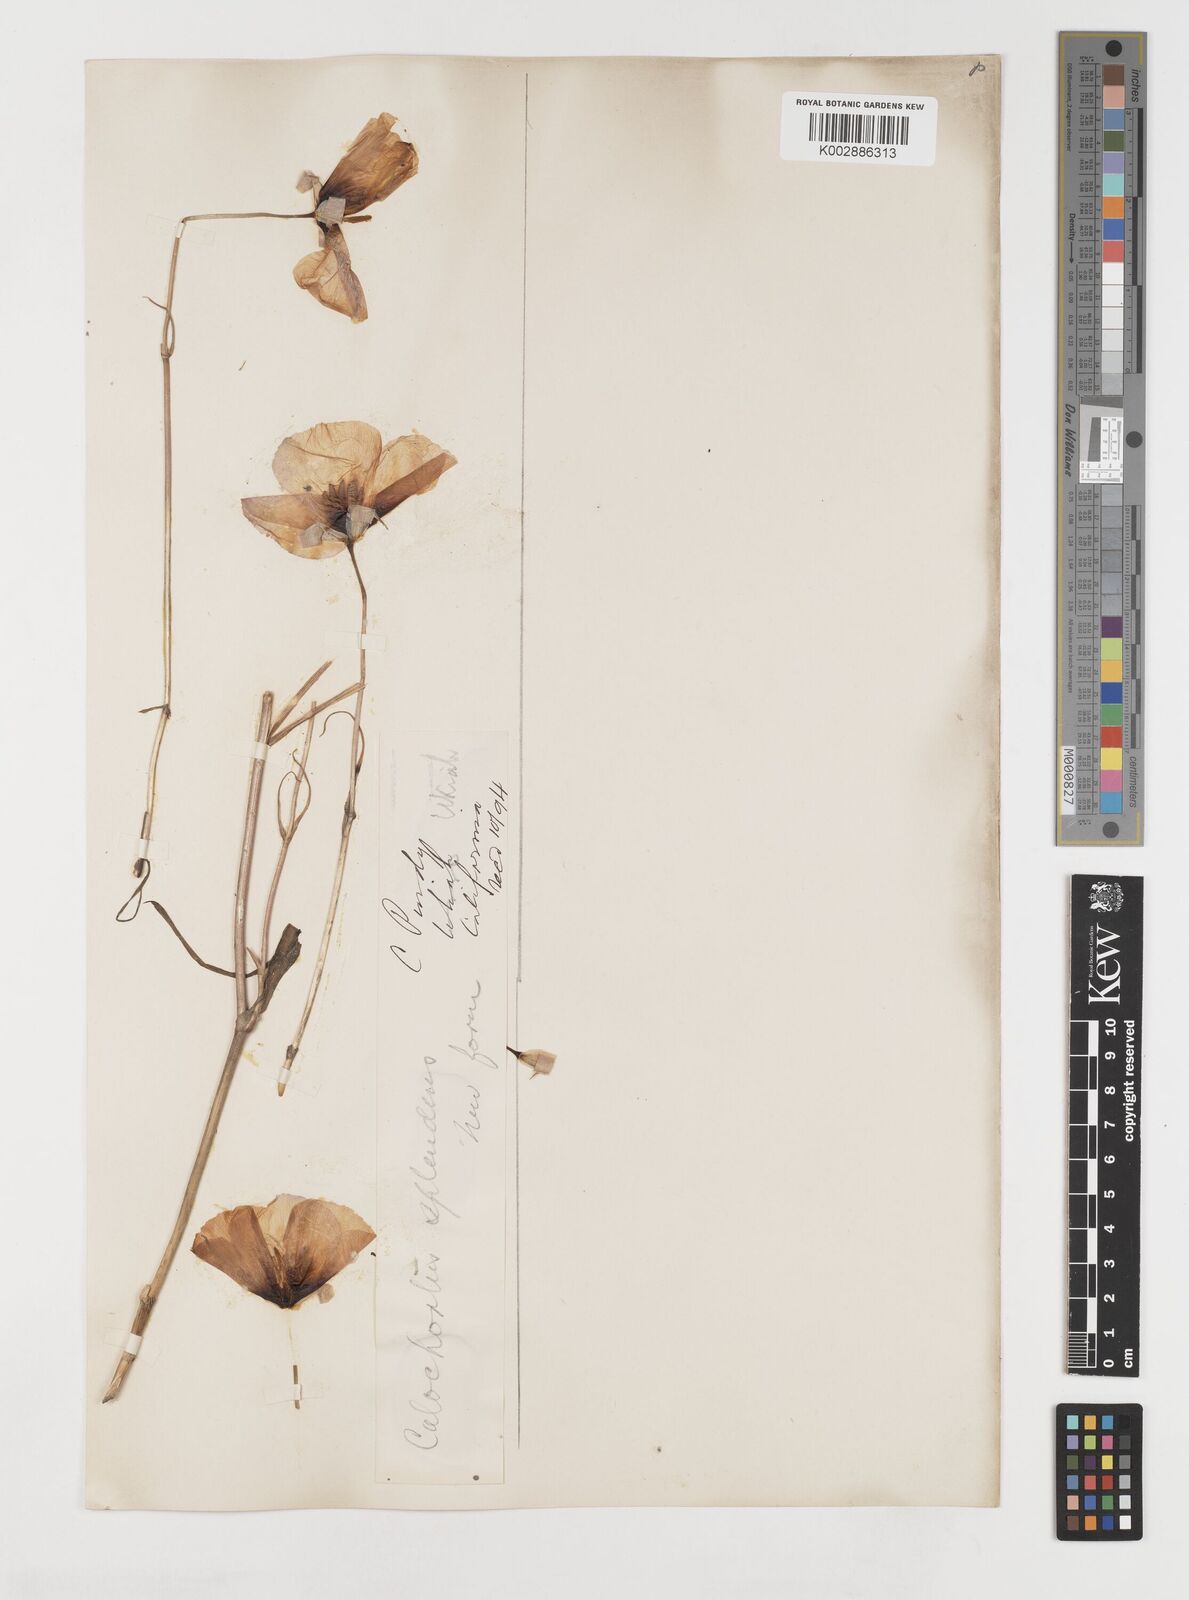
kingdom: Plantae
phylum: Tracheophyta
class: Liliopsida
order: Liliales
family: Liliaceae
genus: Calochortus
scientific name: Calochortus splendens
